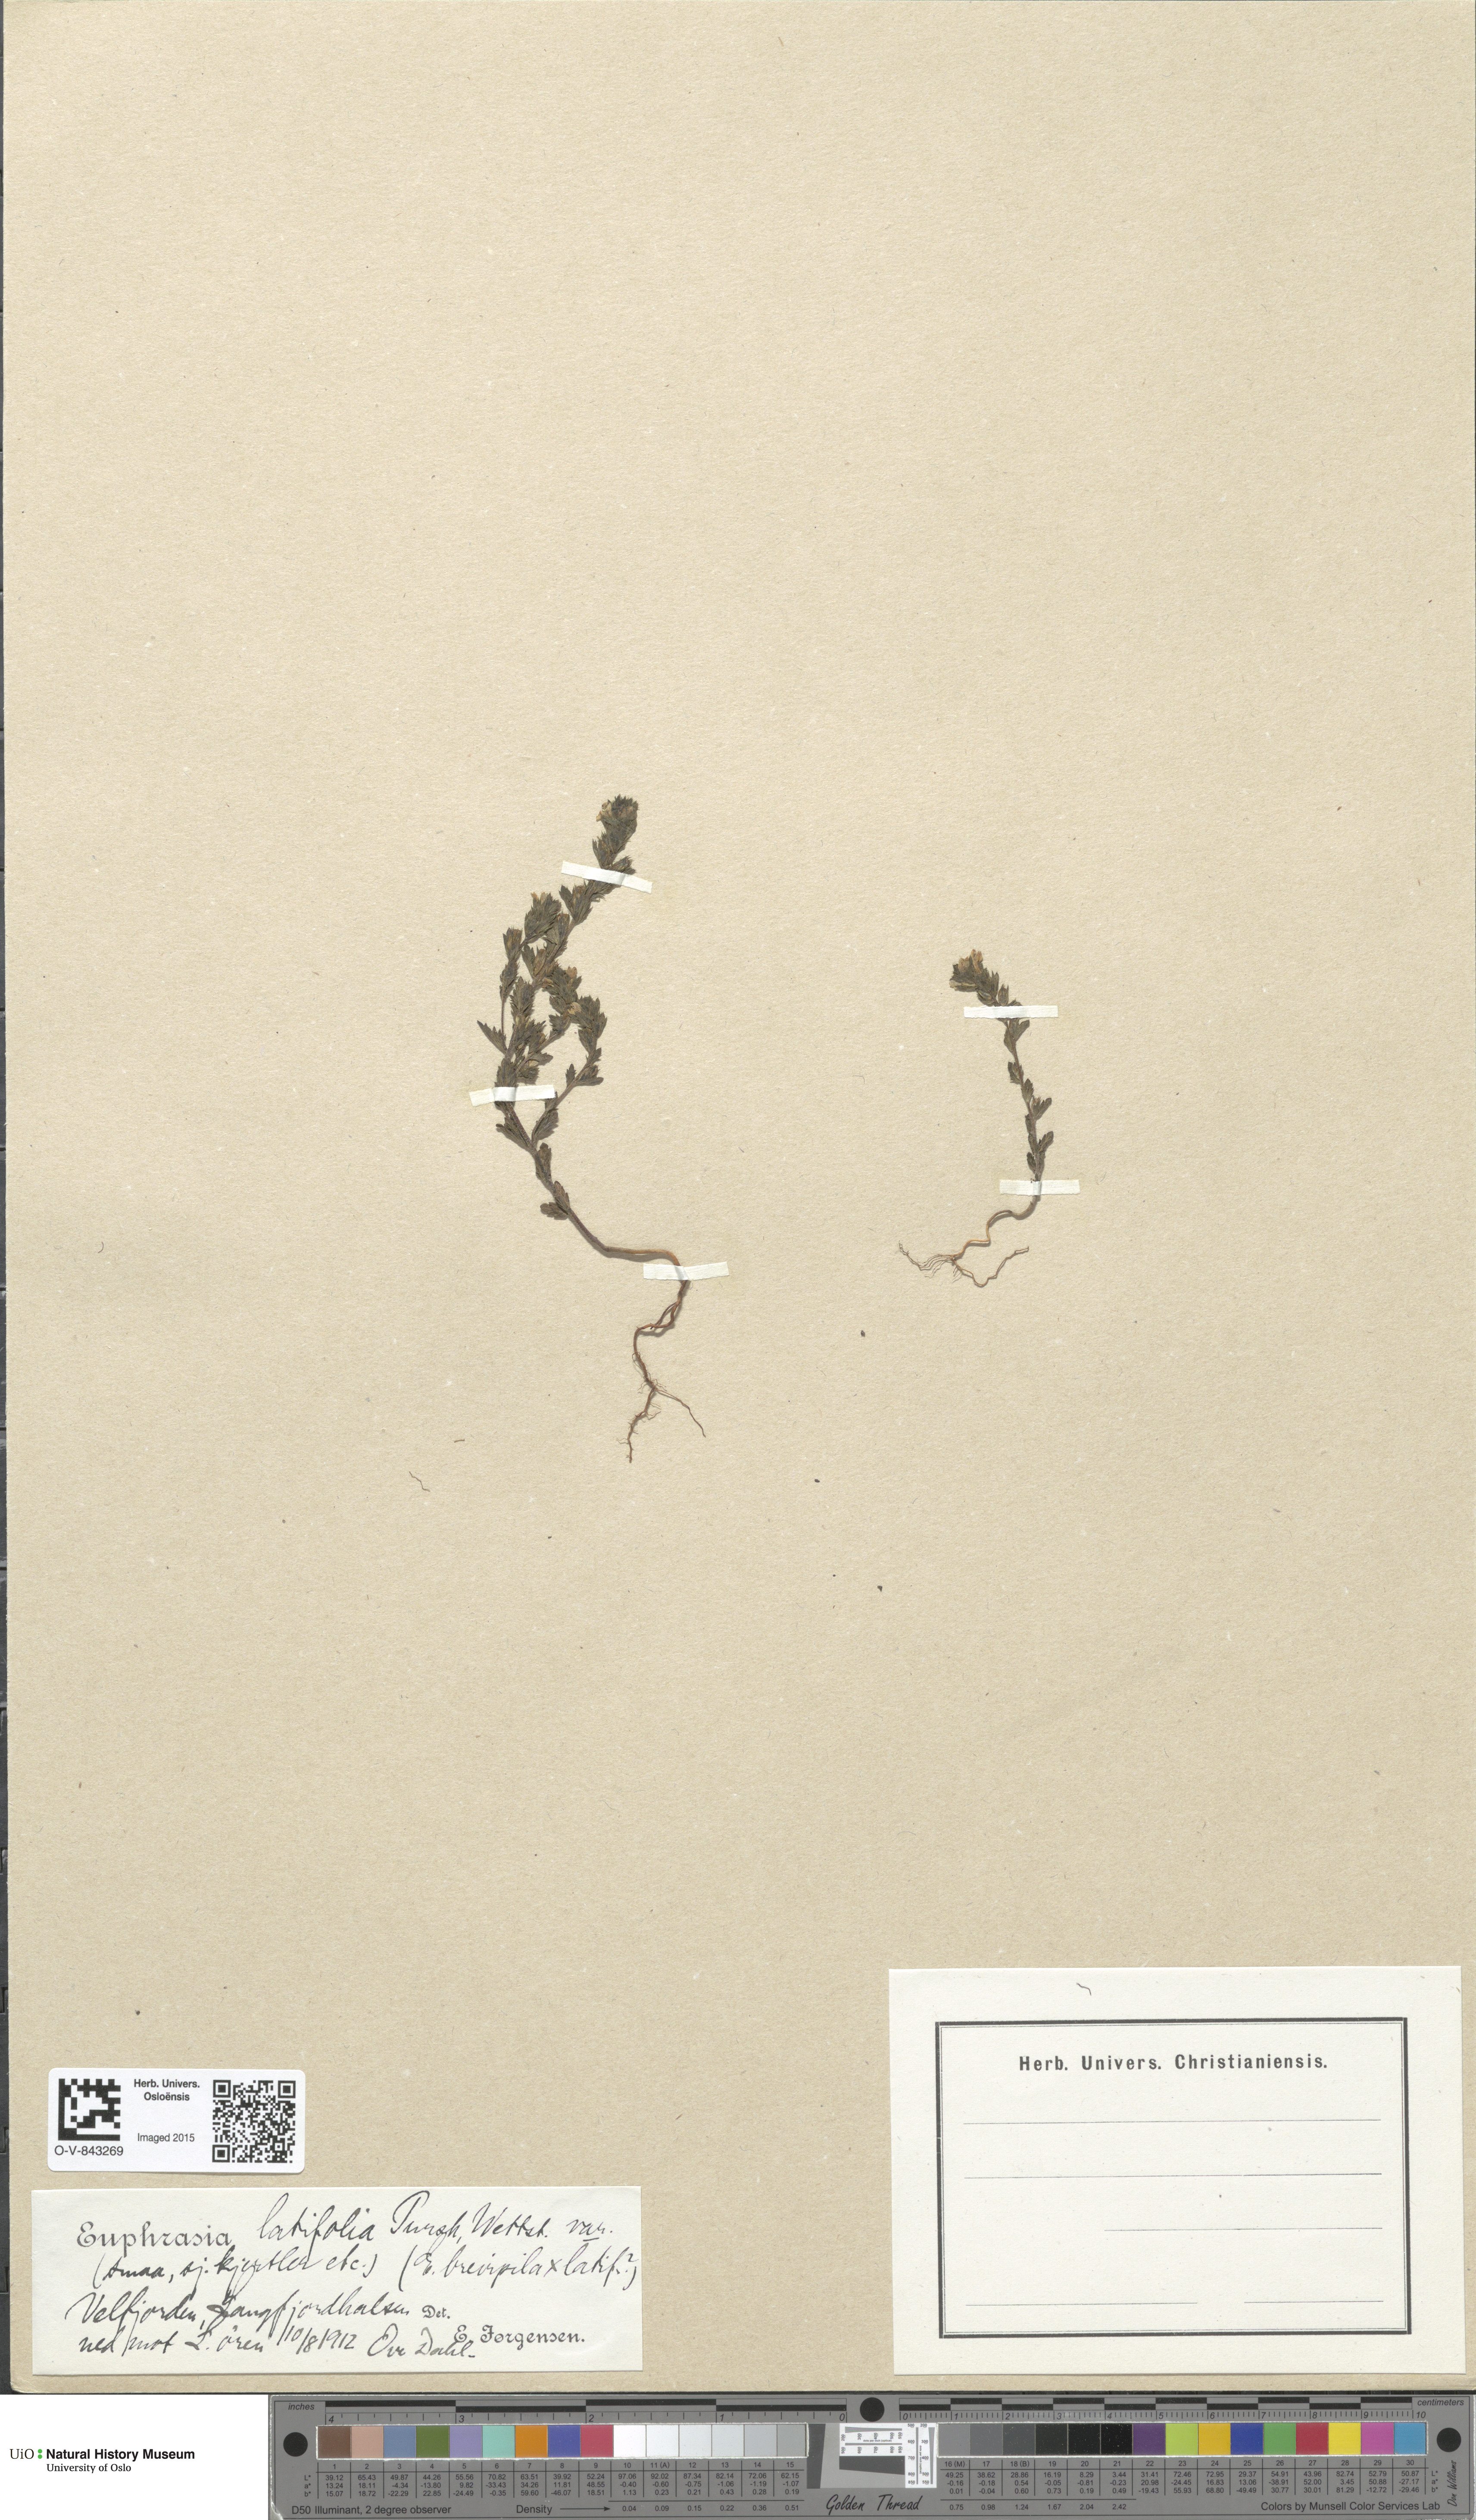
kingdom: Plantae
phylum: Tracheophyta
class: Magnoliopsida
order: Lamiales
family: Orobanchaceae
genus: Euphrasia
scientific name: Euphrasia wettsteinii
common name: Wettstein's eyebright
